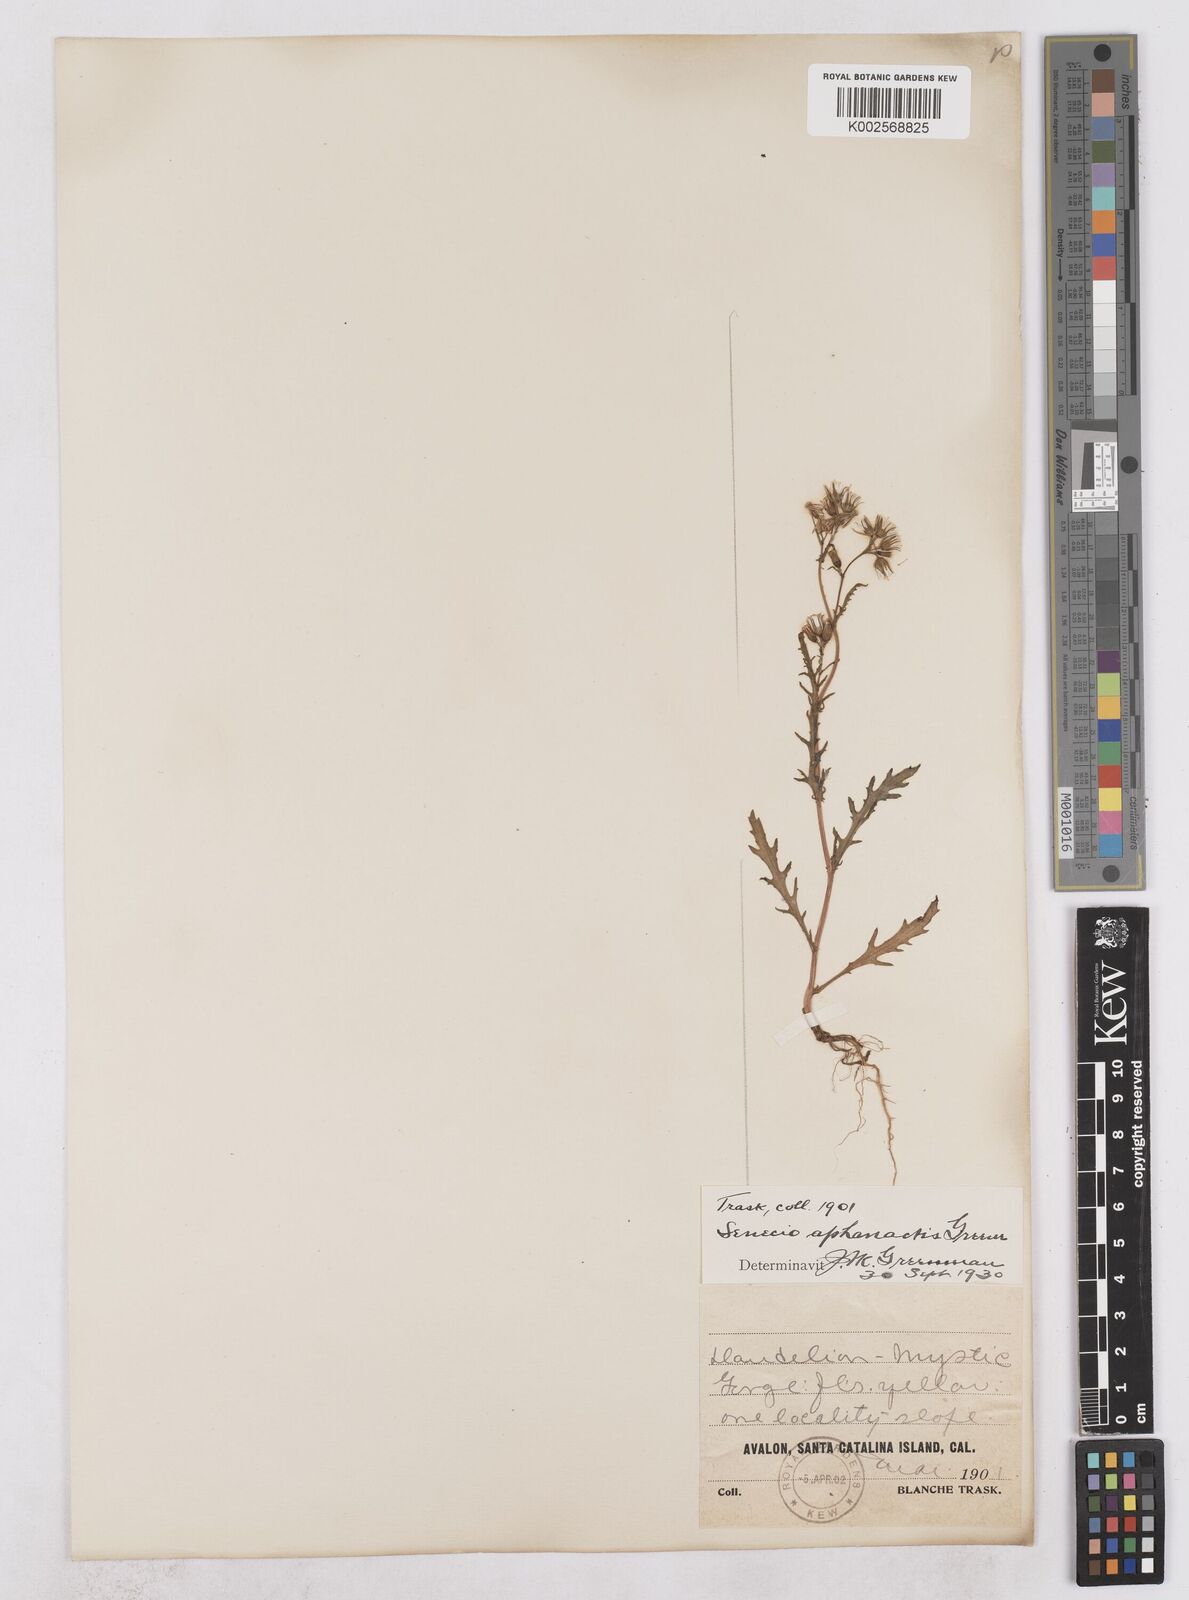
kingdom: Plantae
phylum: Tracheophyta
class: Magnoliopsida
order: Asterales
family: Asteraceae
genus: Senecio
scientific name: Senecio aphanactis
